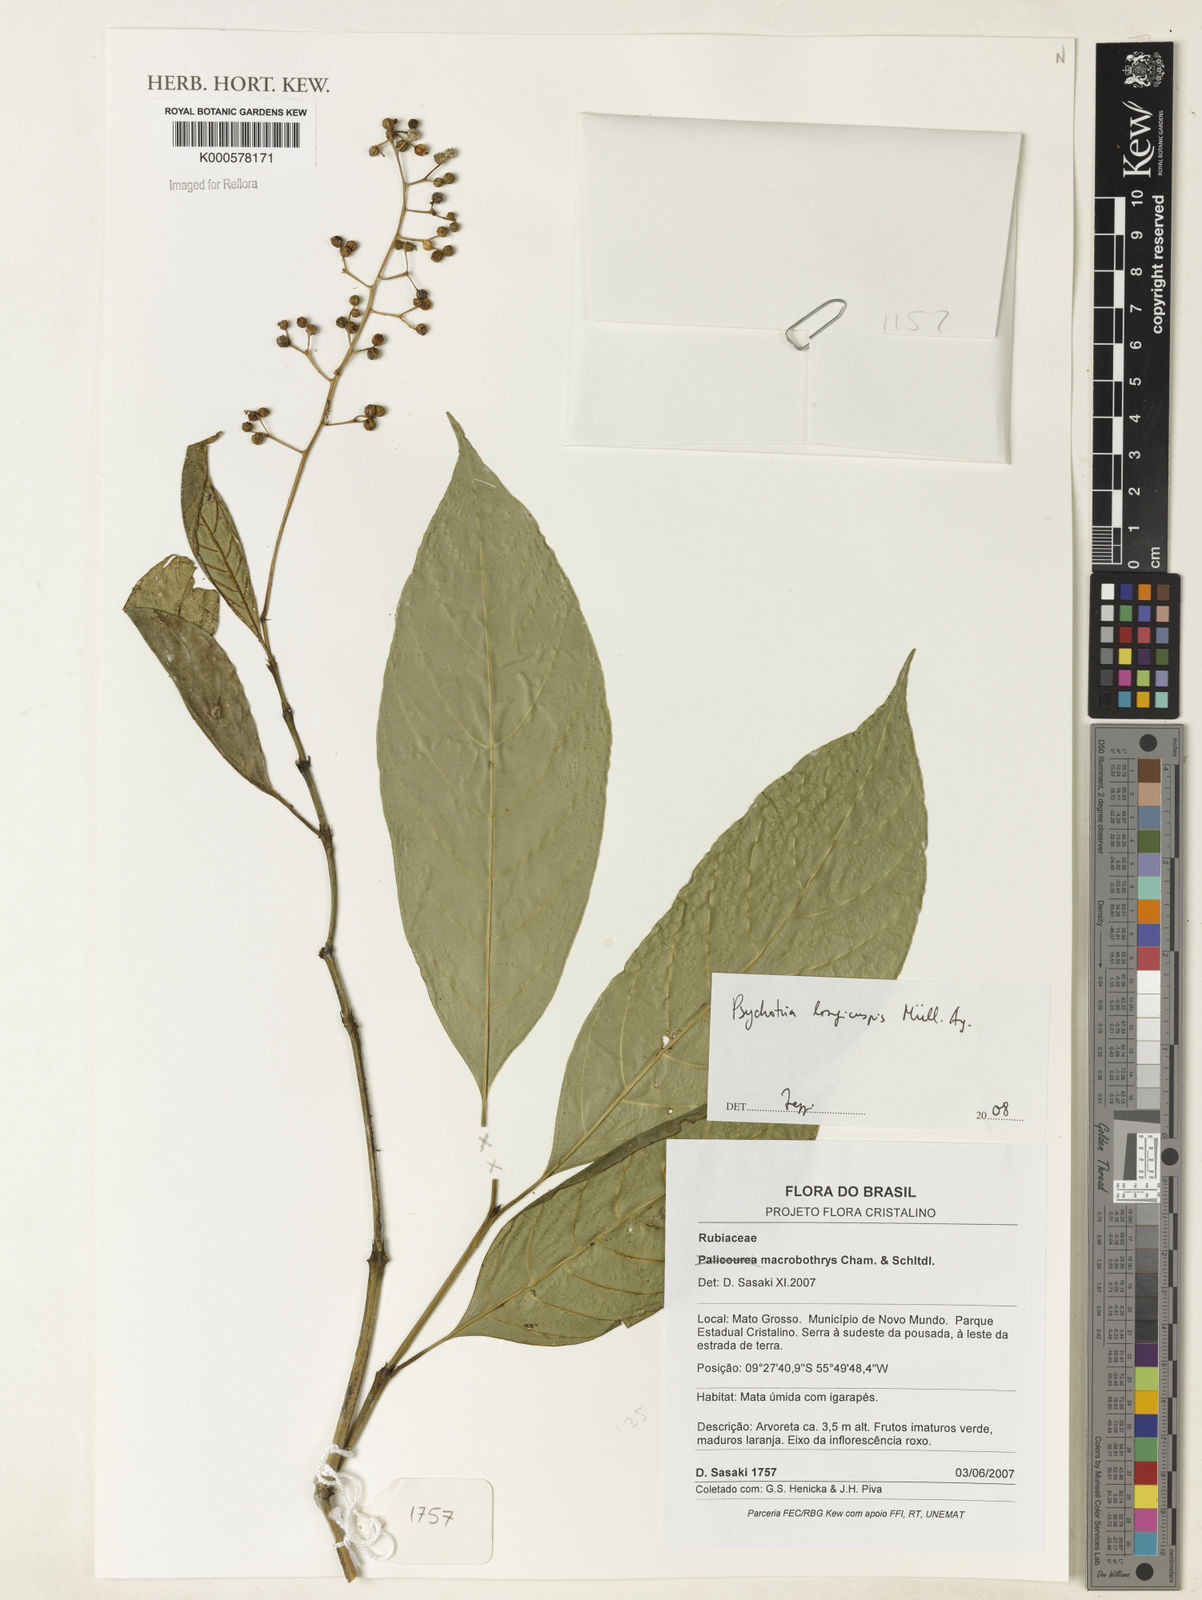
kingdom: Plantae
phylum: Tracheophyta
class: Magnoliopsida
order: Gentianales
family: Rubiaceae
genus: Psychotria
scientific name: Psychotria
